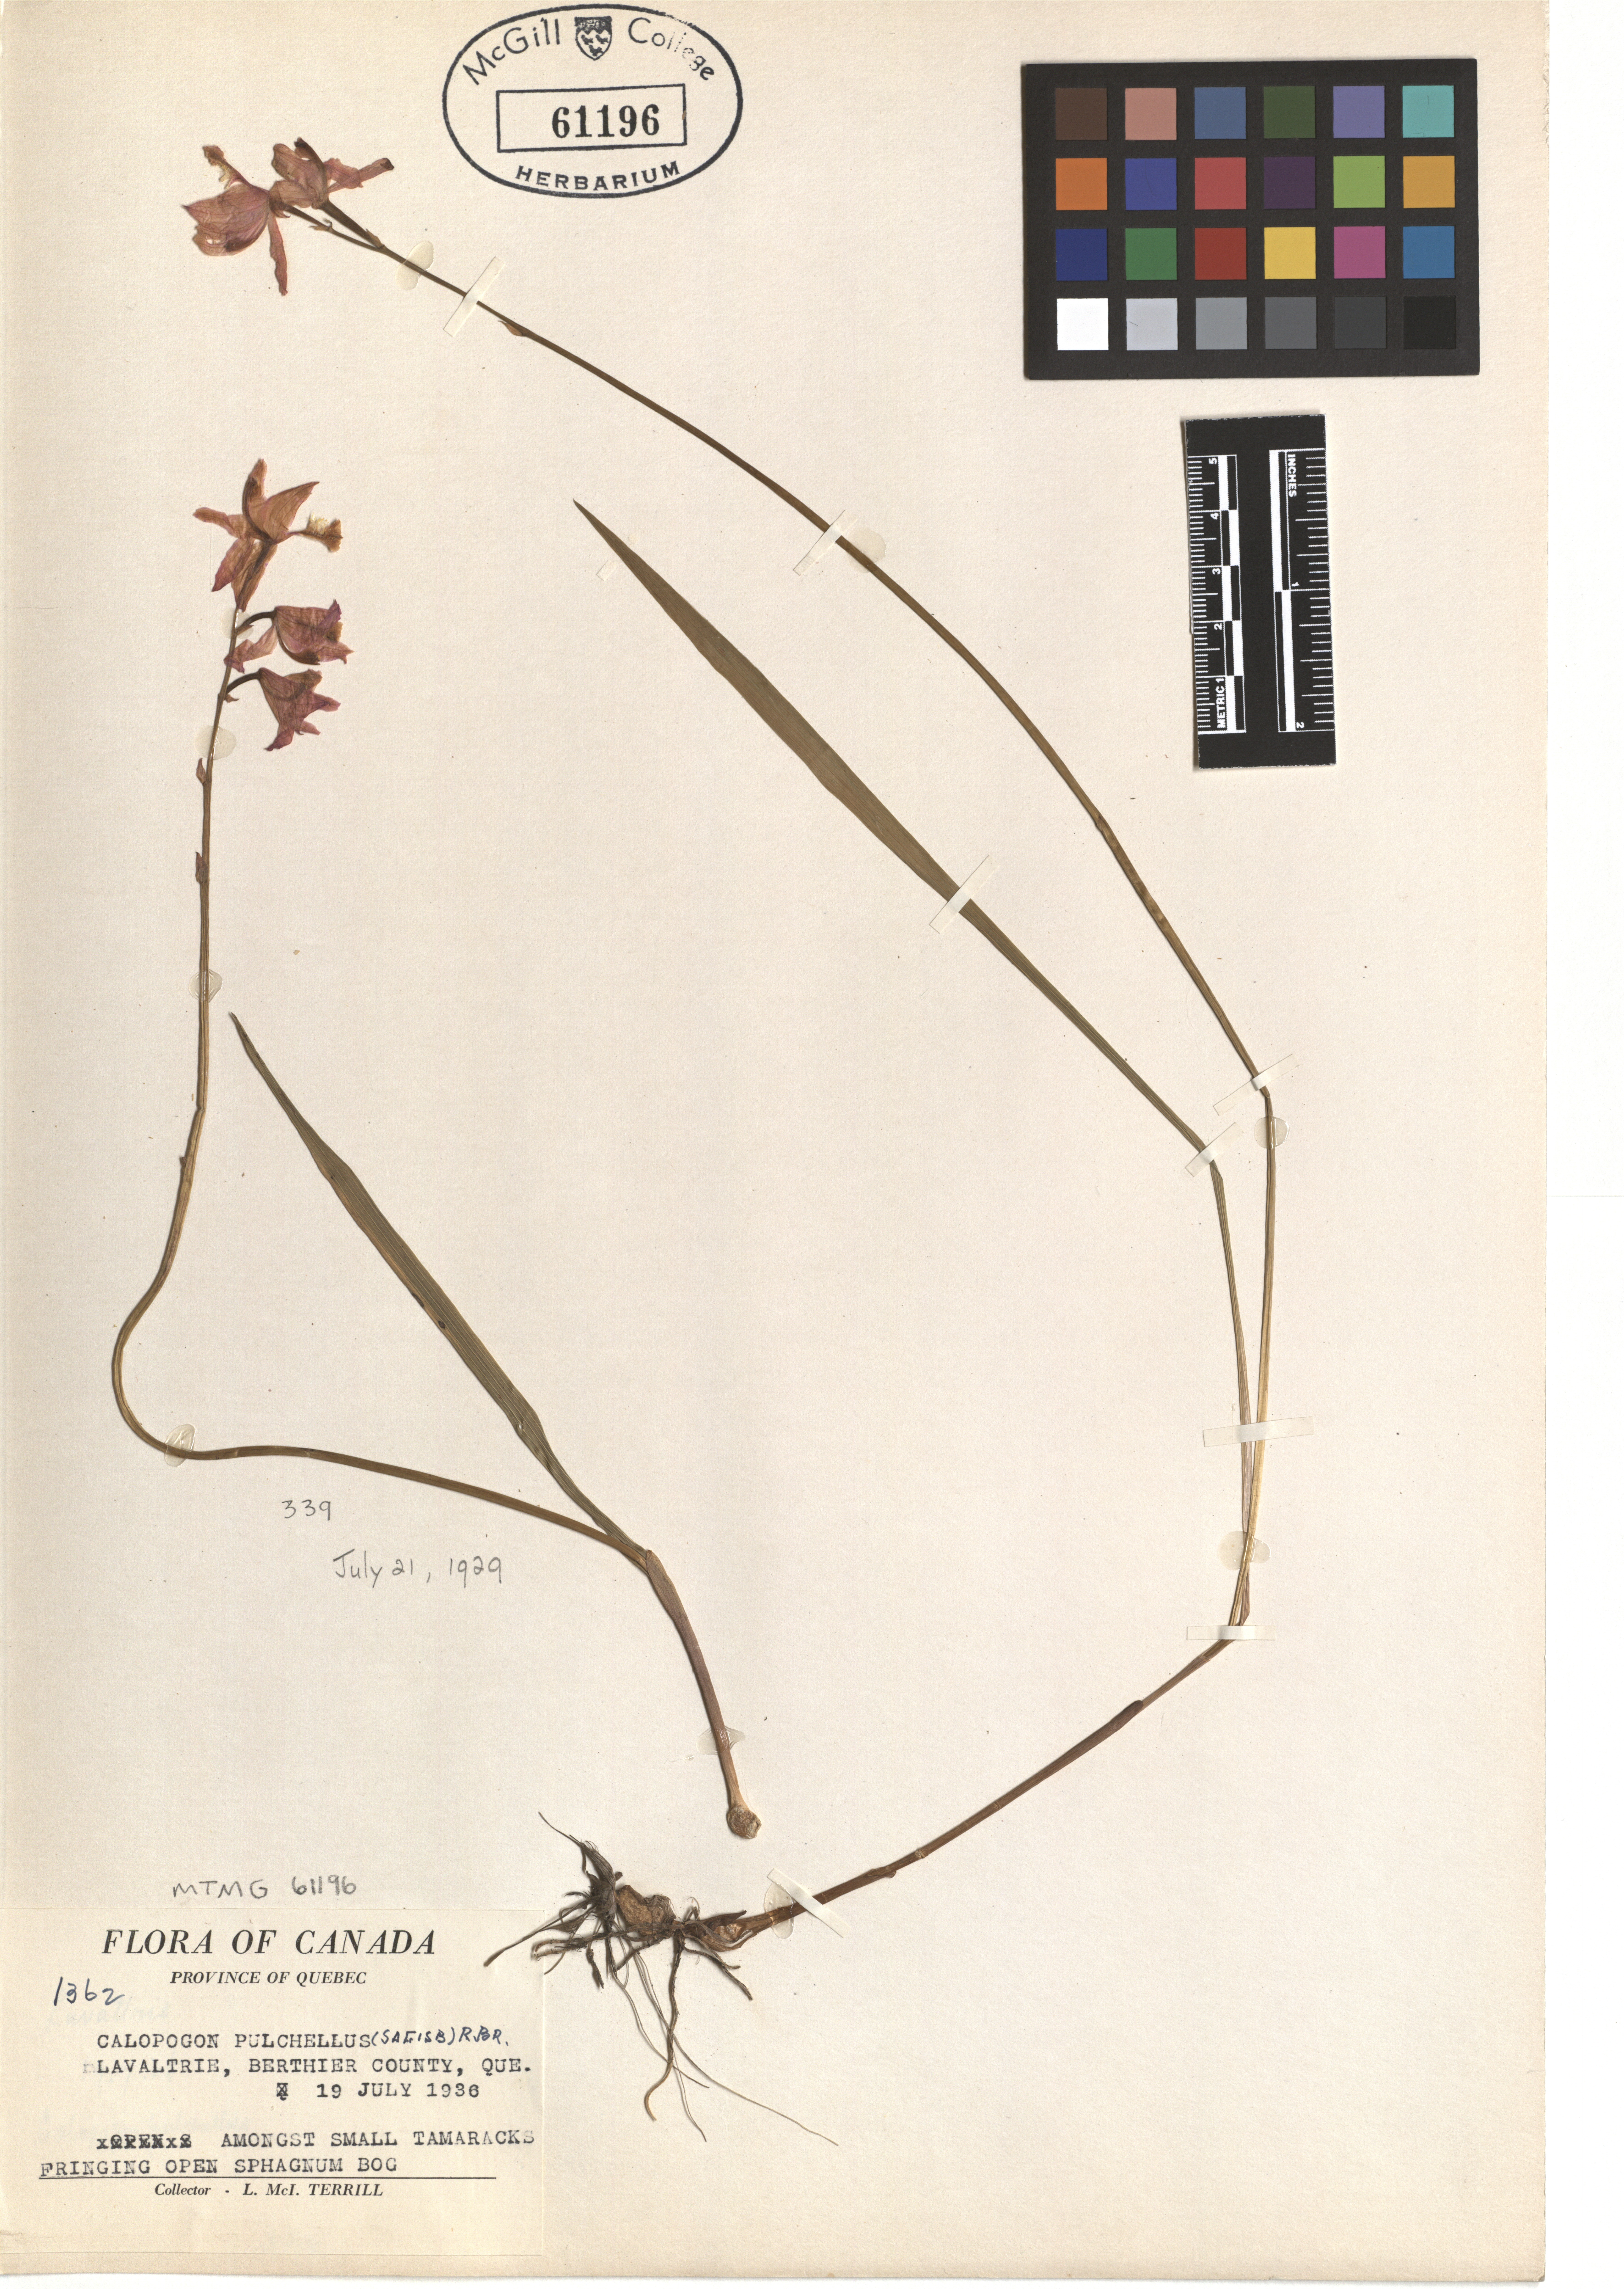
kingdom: Plantae
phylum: Tracheophyta
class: Liliopsida
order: Asparagales
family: Orchidaceae
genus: Calopogon
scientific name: Calopogon tuberosus
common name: Grass-pink
